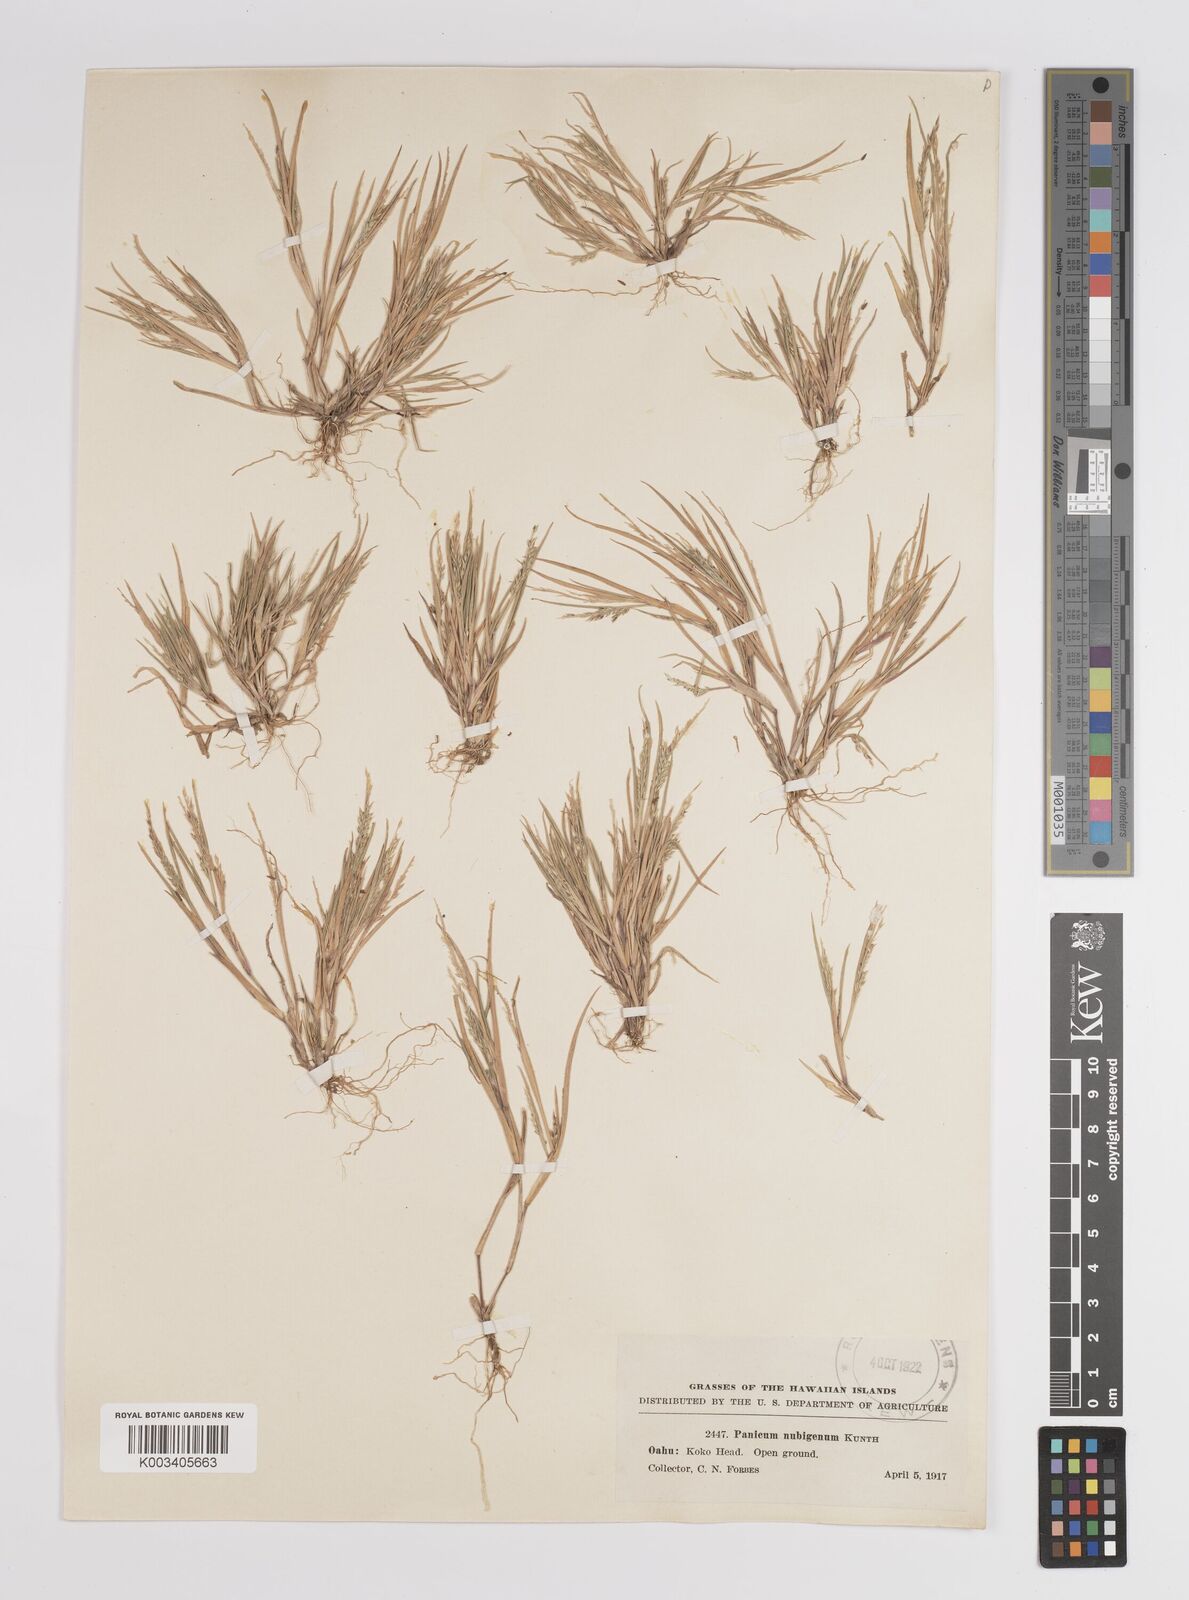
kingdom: Plantae
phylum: Tracheophyta
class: Liliopsida
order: Poales
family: Poaceae
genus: Panicum
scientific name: Panicum fauriei
